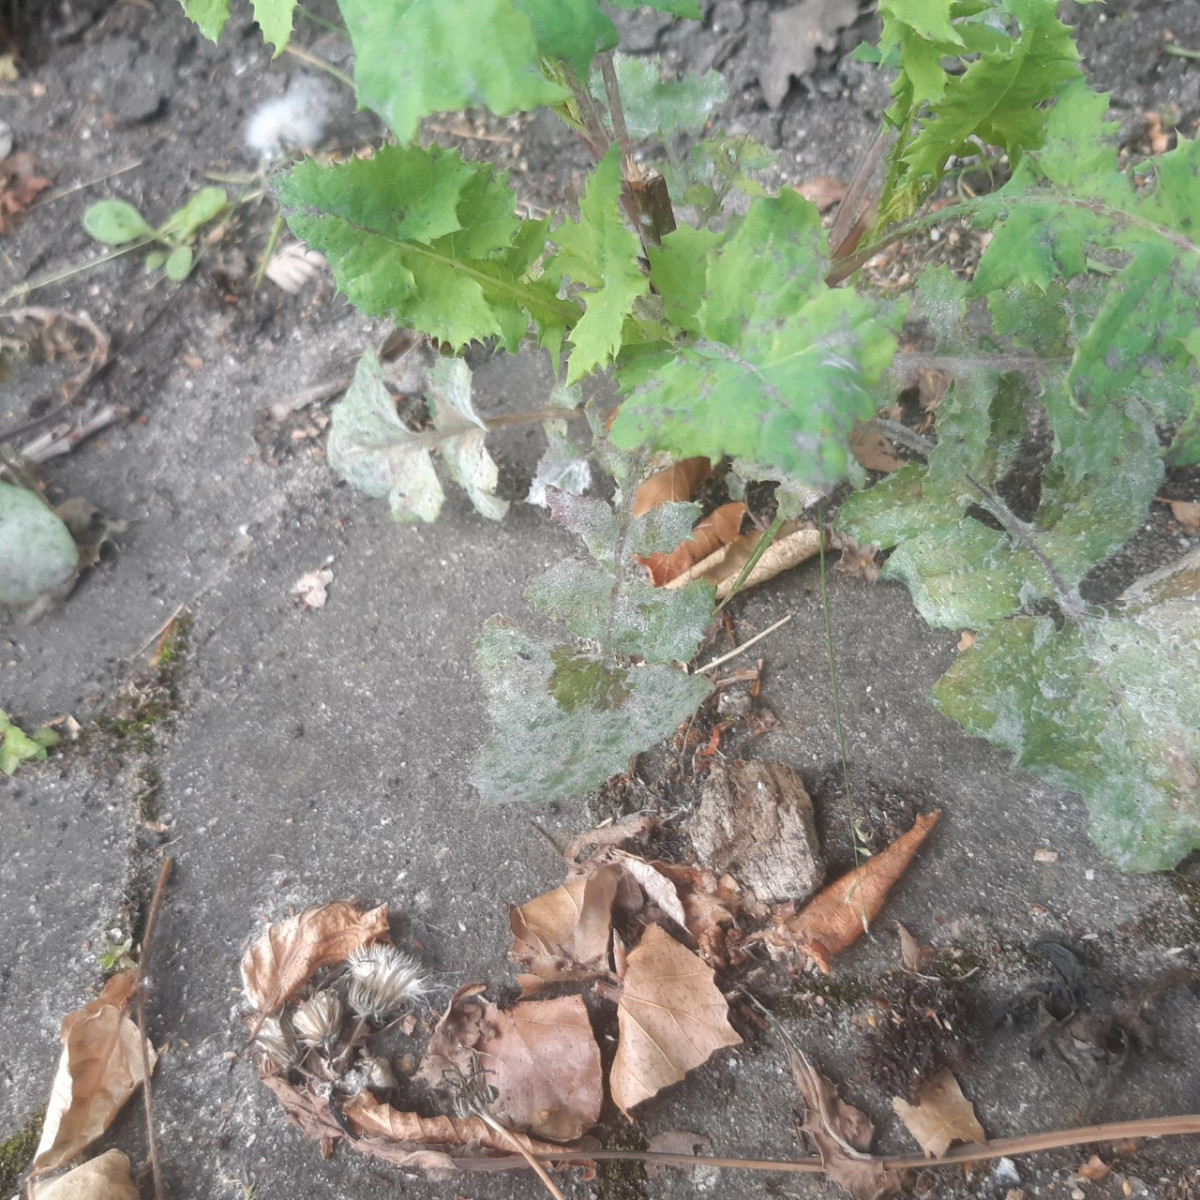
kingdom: Fungi
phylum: Ascomycota
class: Leotiomycetes
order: Helotiales
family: Erysiphaceae
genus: Golovinomyces
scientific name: Golovinomyces sonchicola
